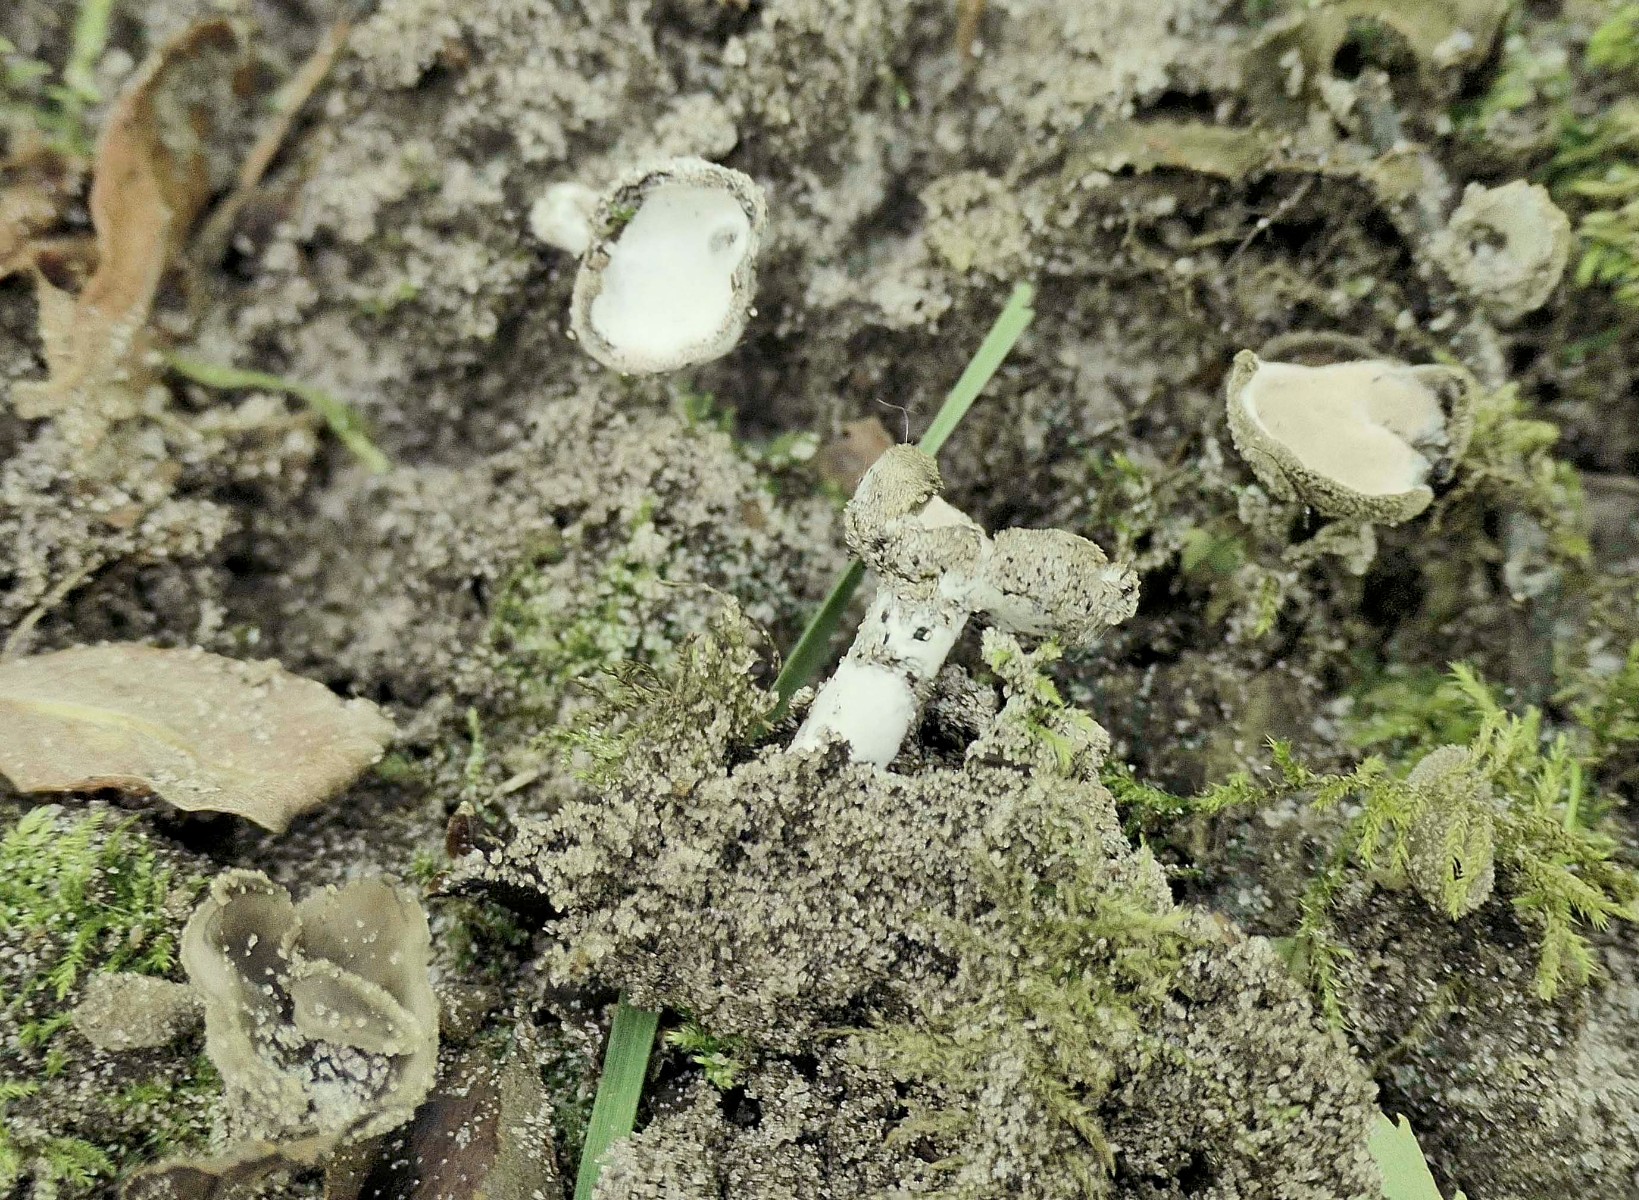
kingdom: Fungi
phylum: Ascomycota
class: Sordariomycetes
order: Hypocreales
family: Hypocreaceae
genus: Hypomyces
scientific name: Hypomyces cervinus
